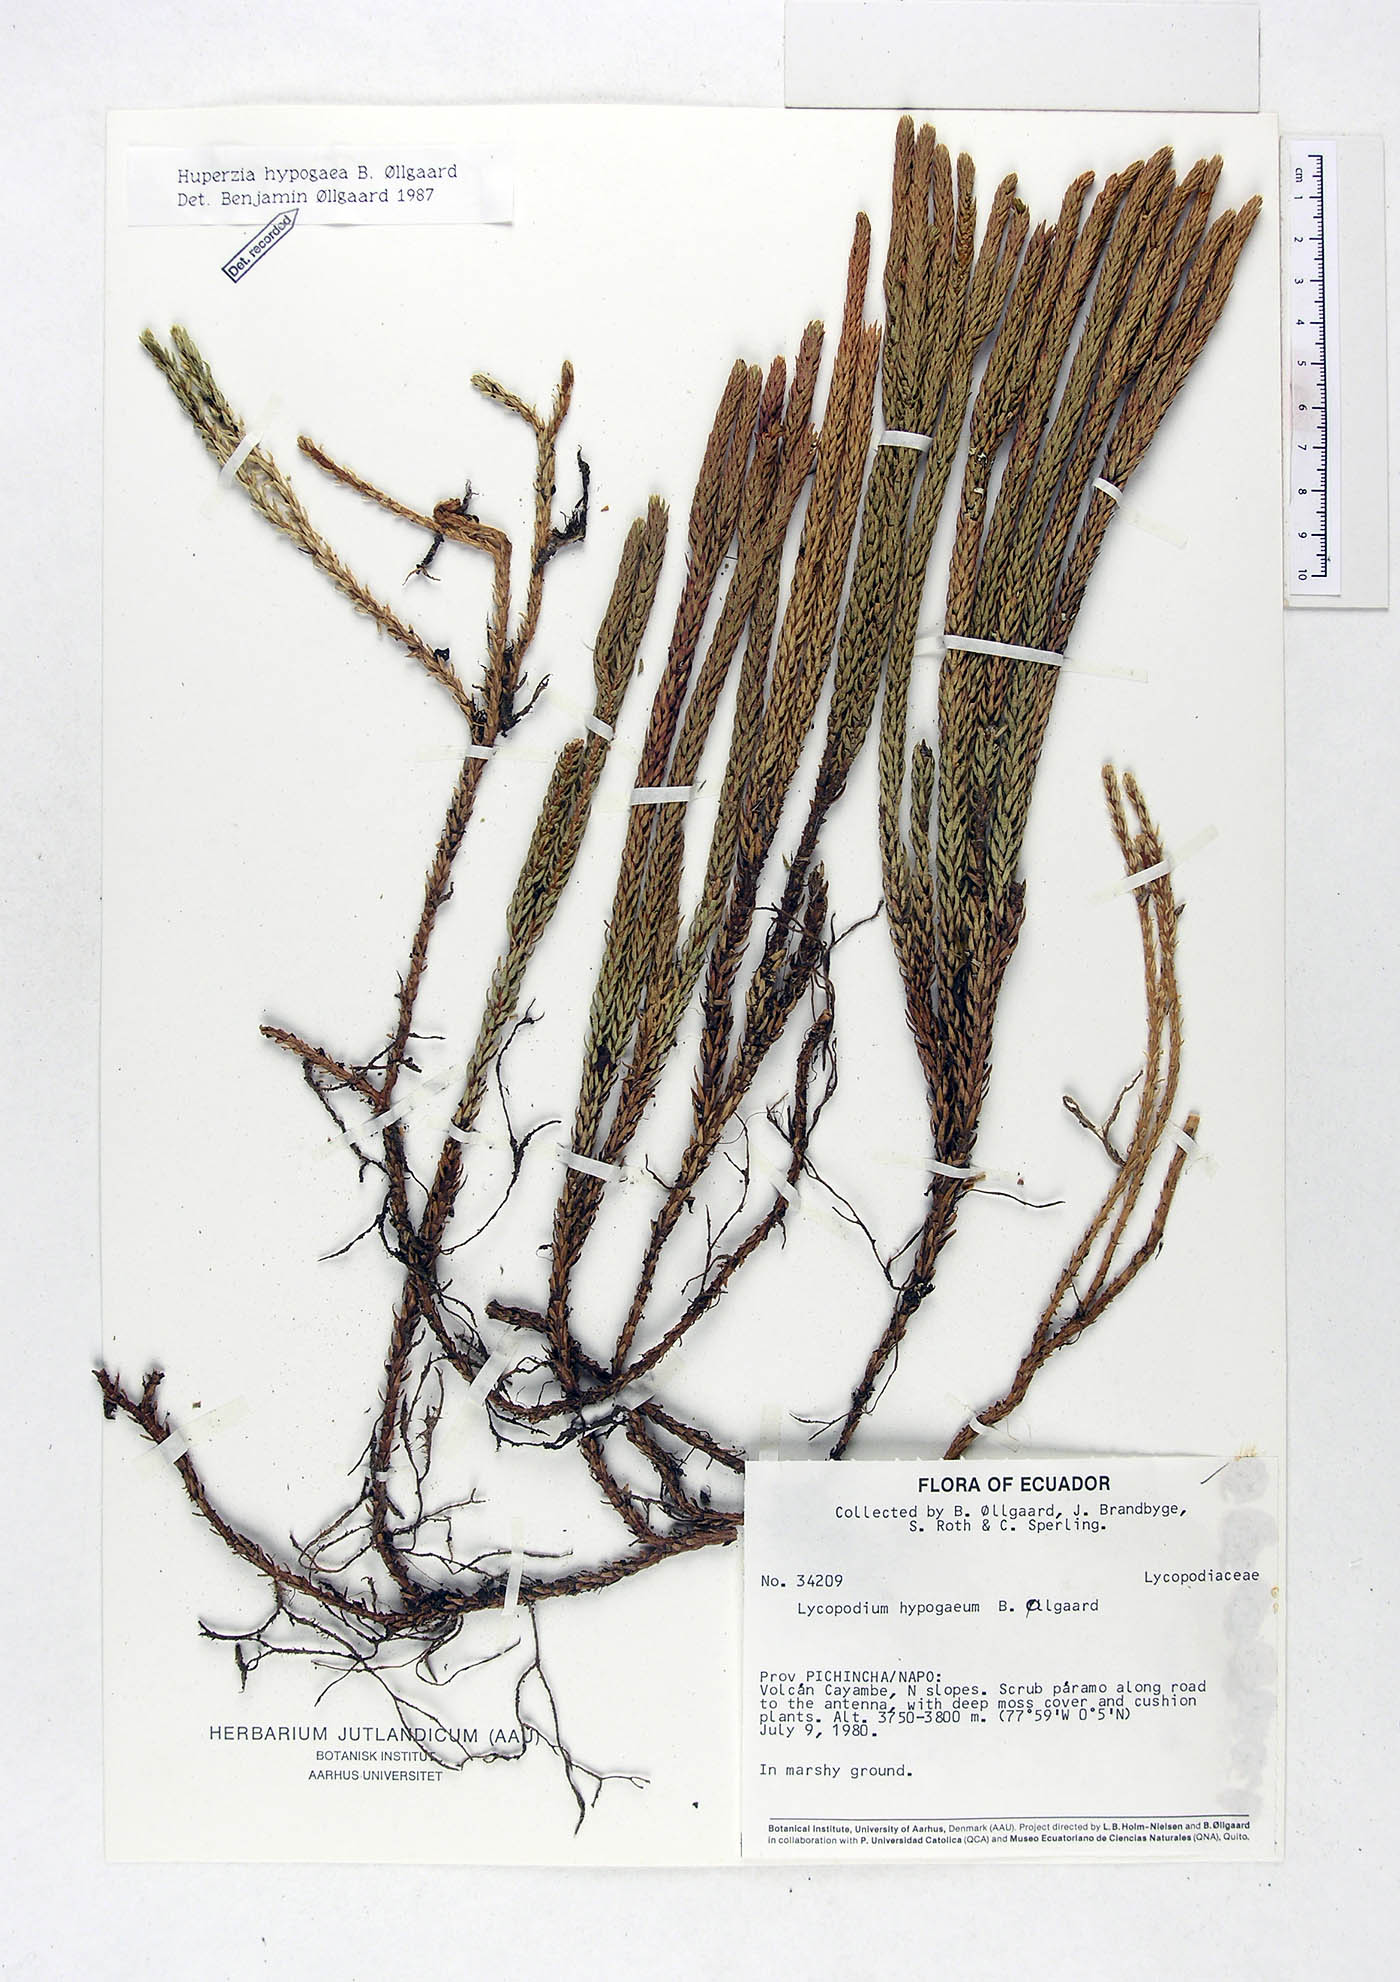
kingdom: Plantae
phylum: Tracheophyta
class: Lycopodiopsida
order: Lycopodiales
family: Lycopodiaceae
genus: Phlegmariurus
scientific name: Phlegmariurus hypogaeus
